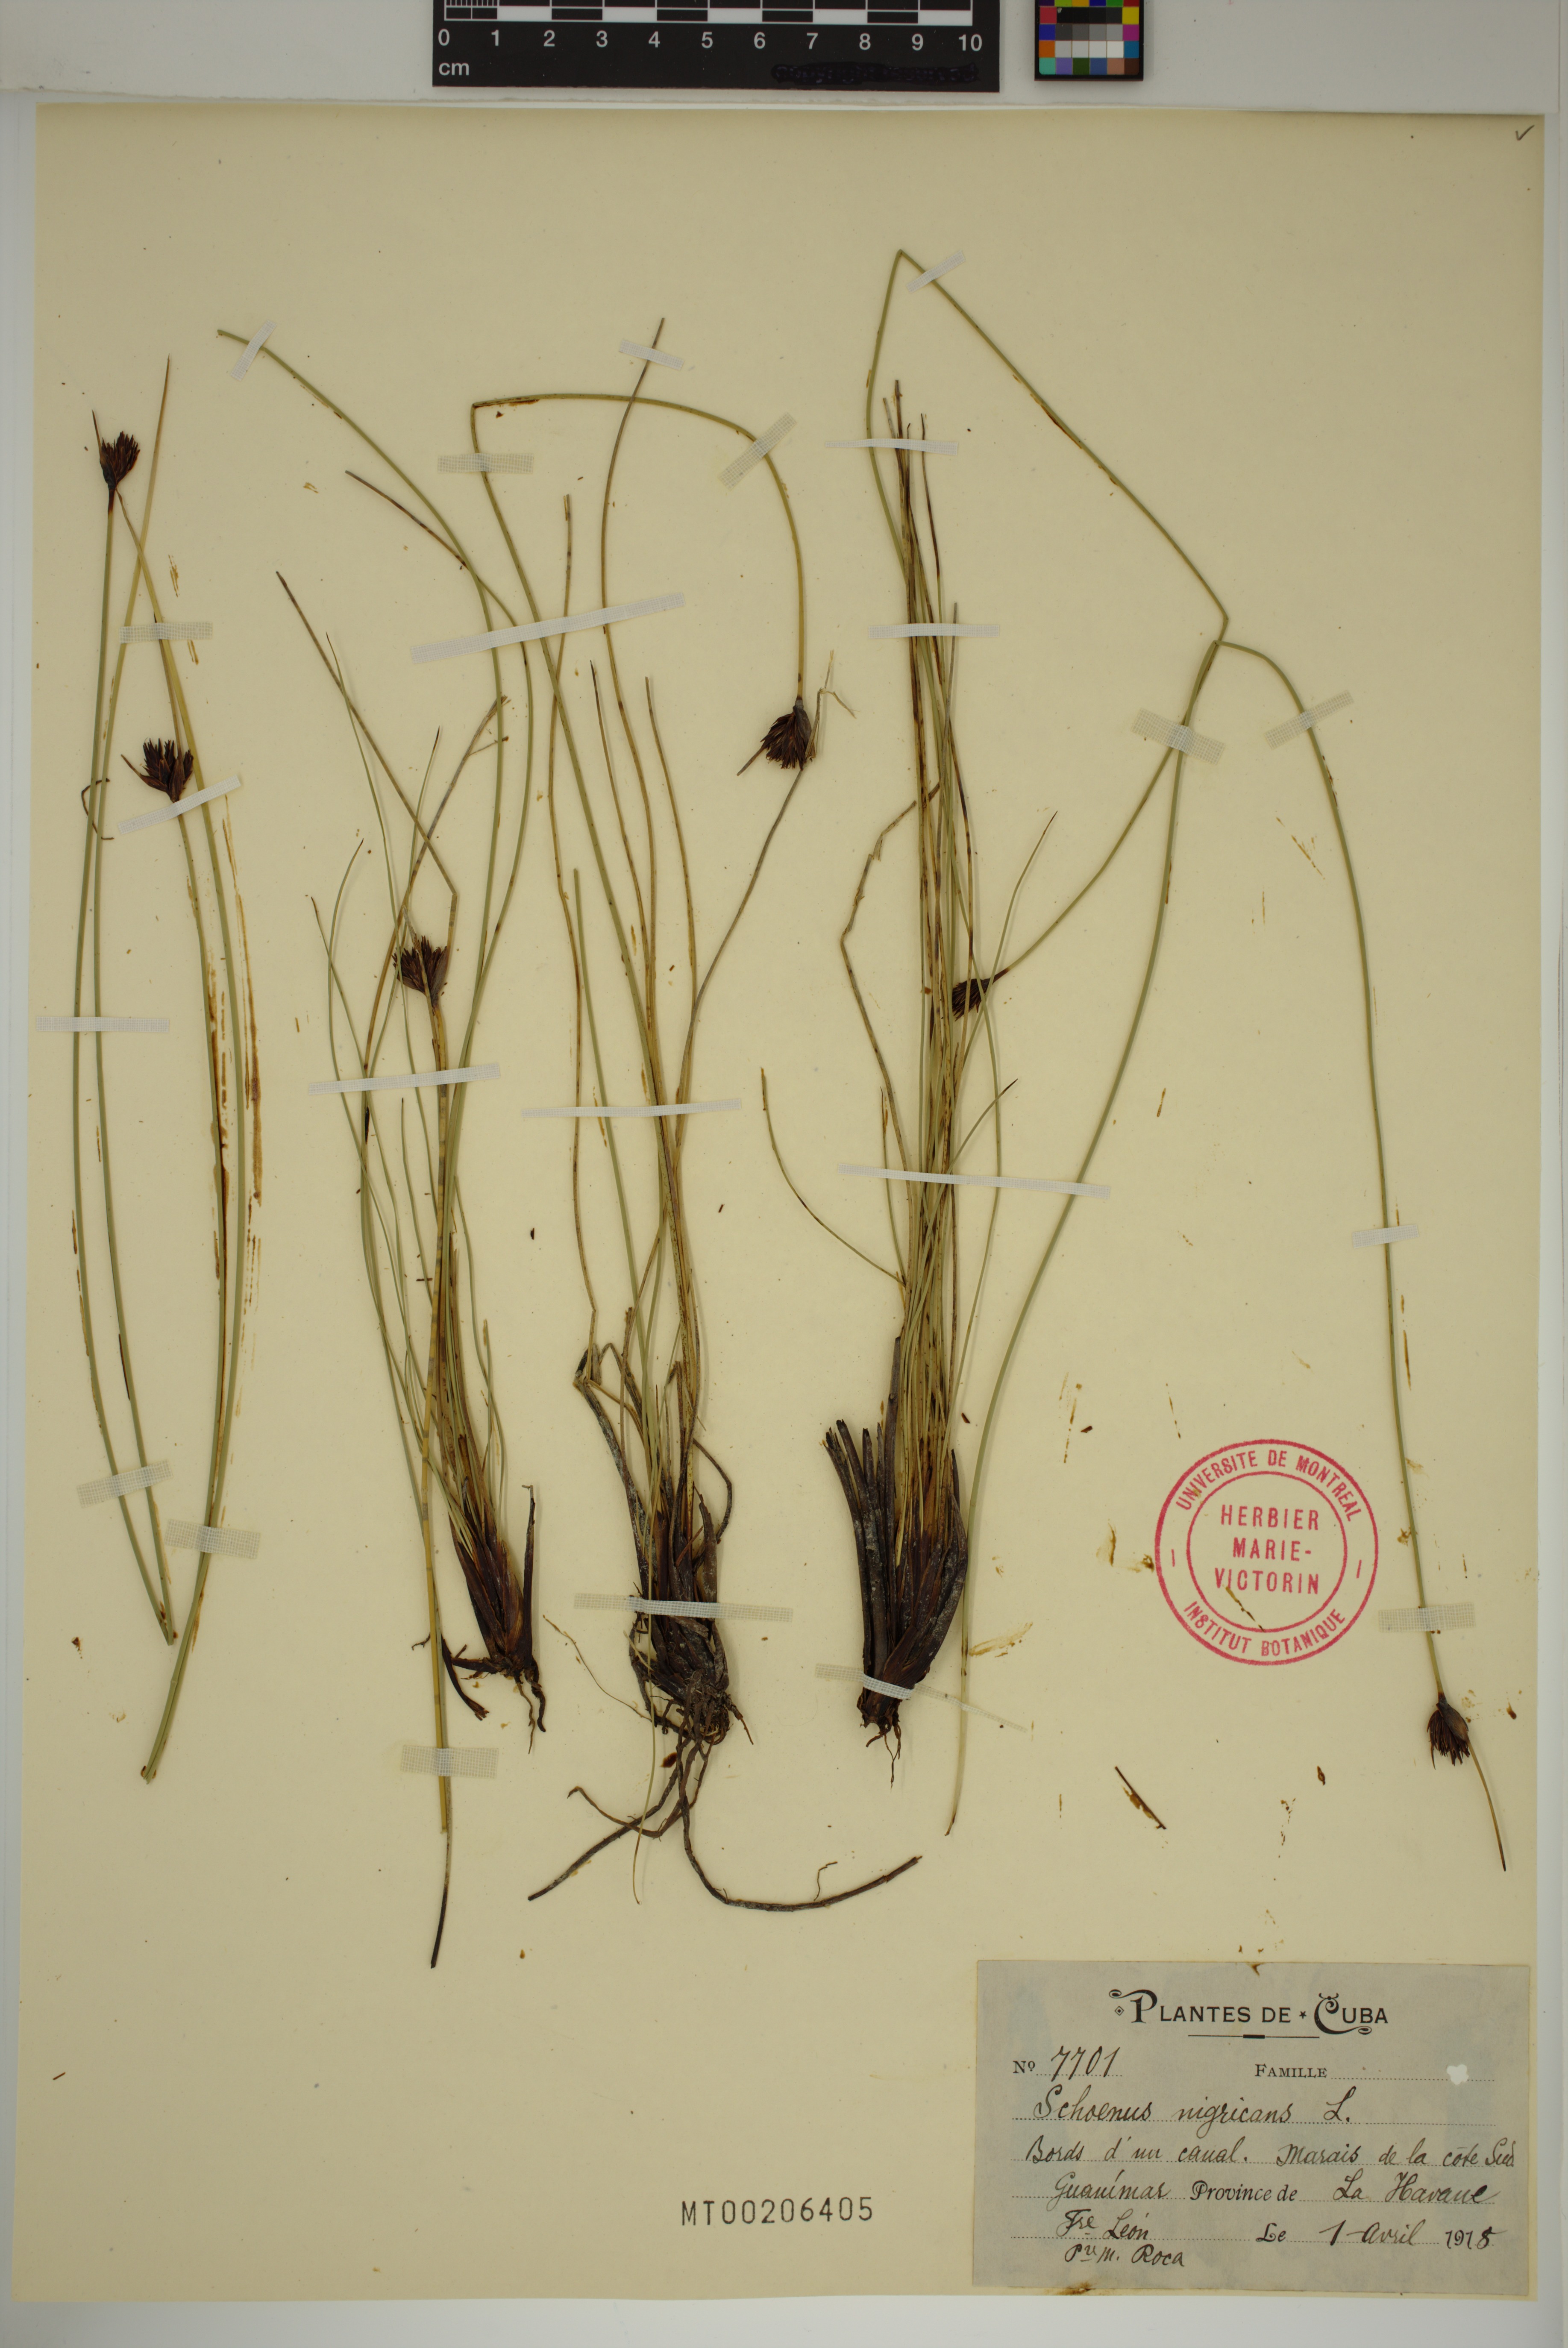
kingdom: Plantae
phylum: Tracheophyta
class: Liliopsida
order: Poales
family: Cyperaceae
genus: Schoenus
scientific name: Schoenus nigricans
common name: Black bog-rush
